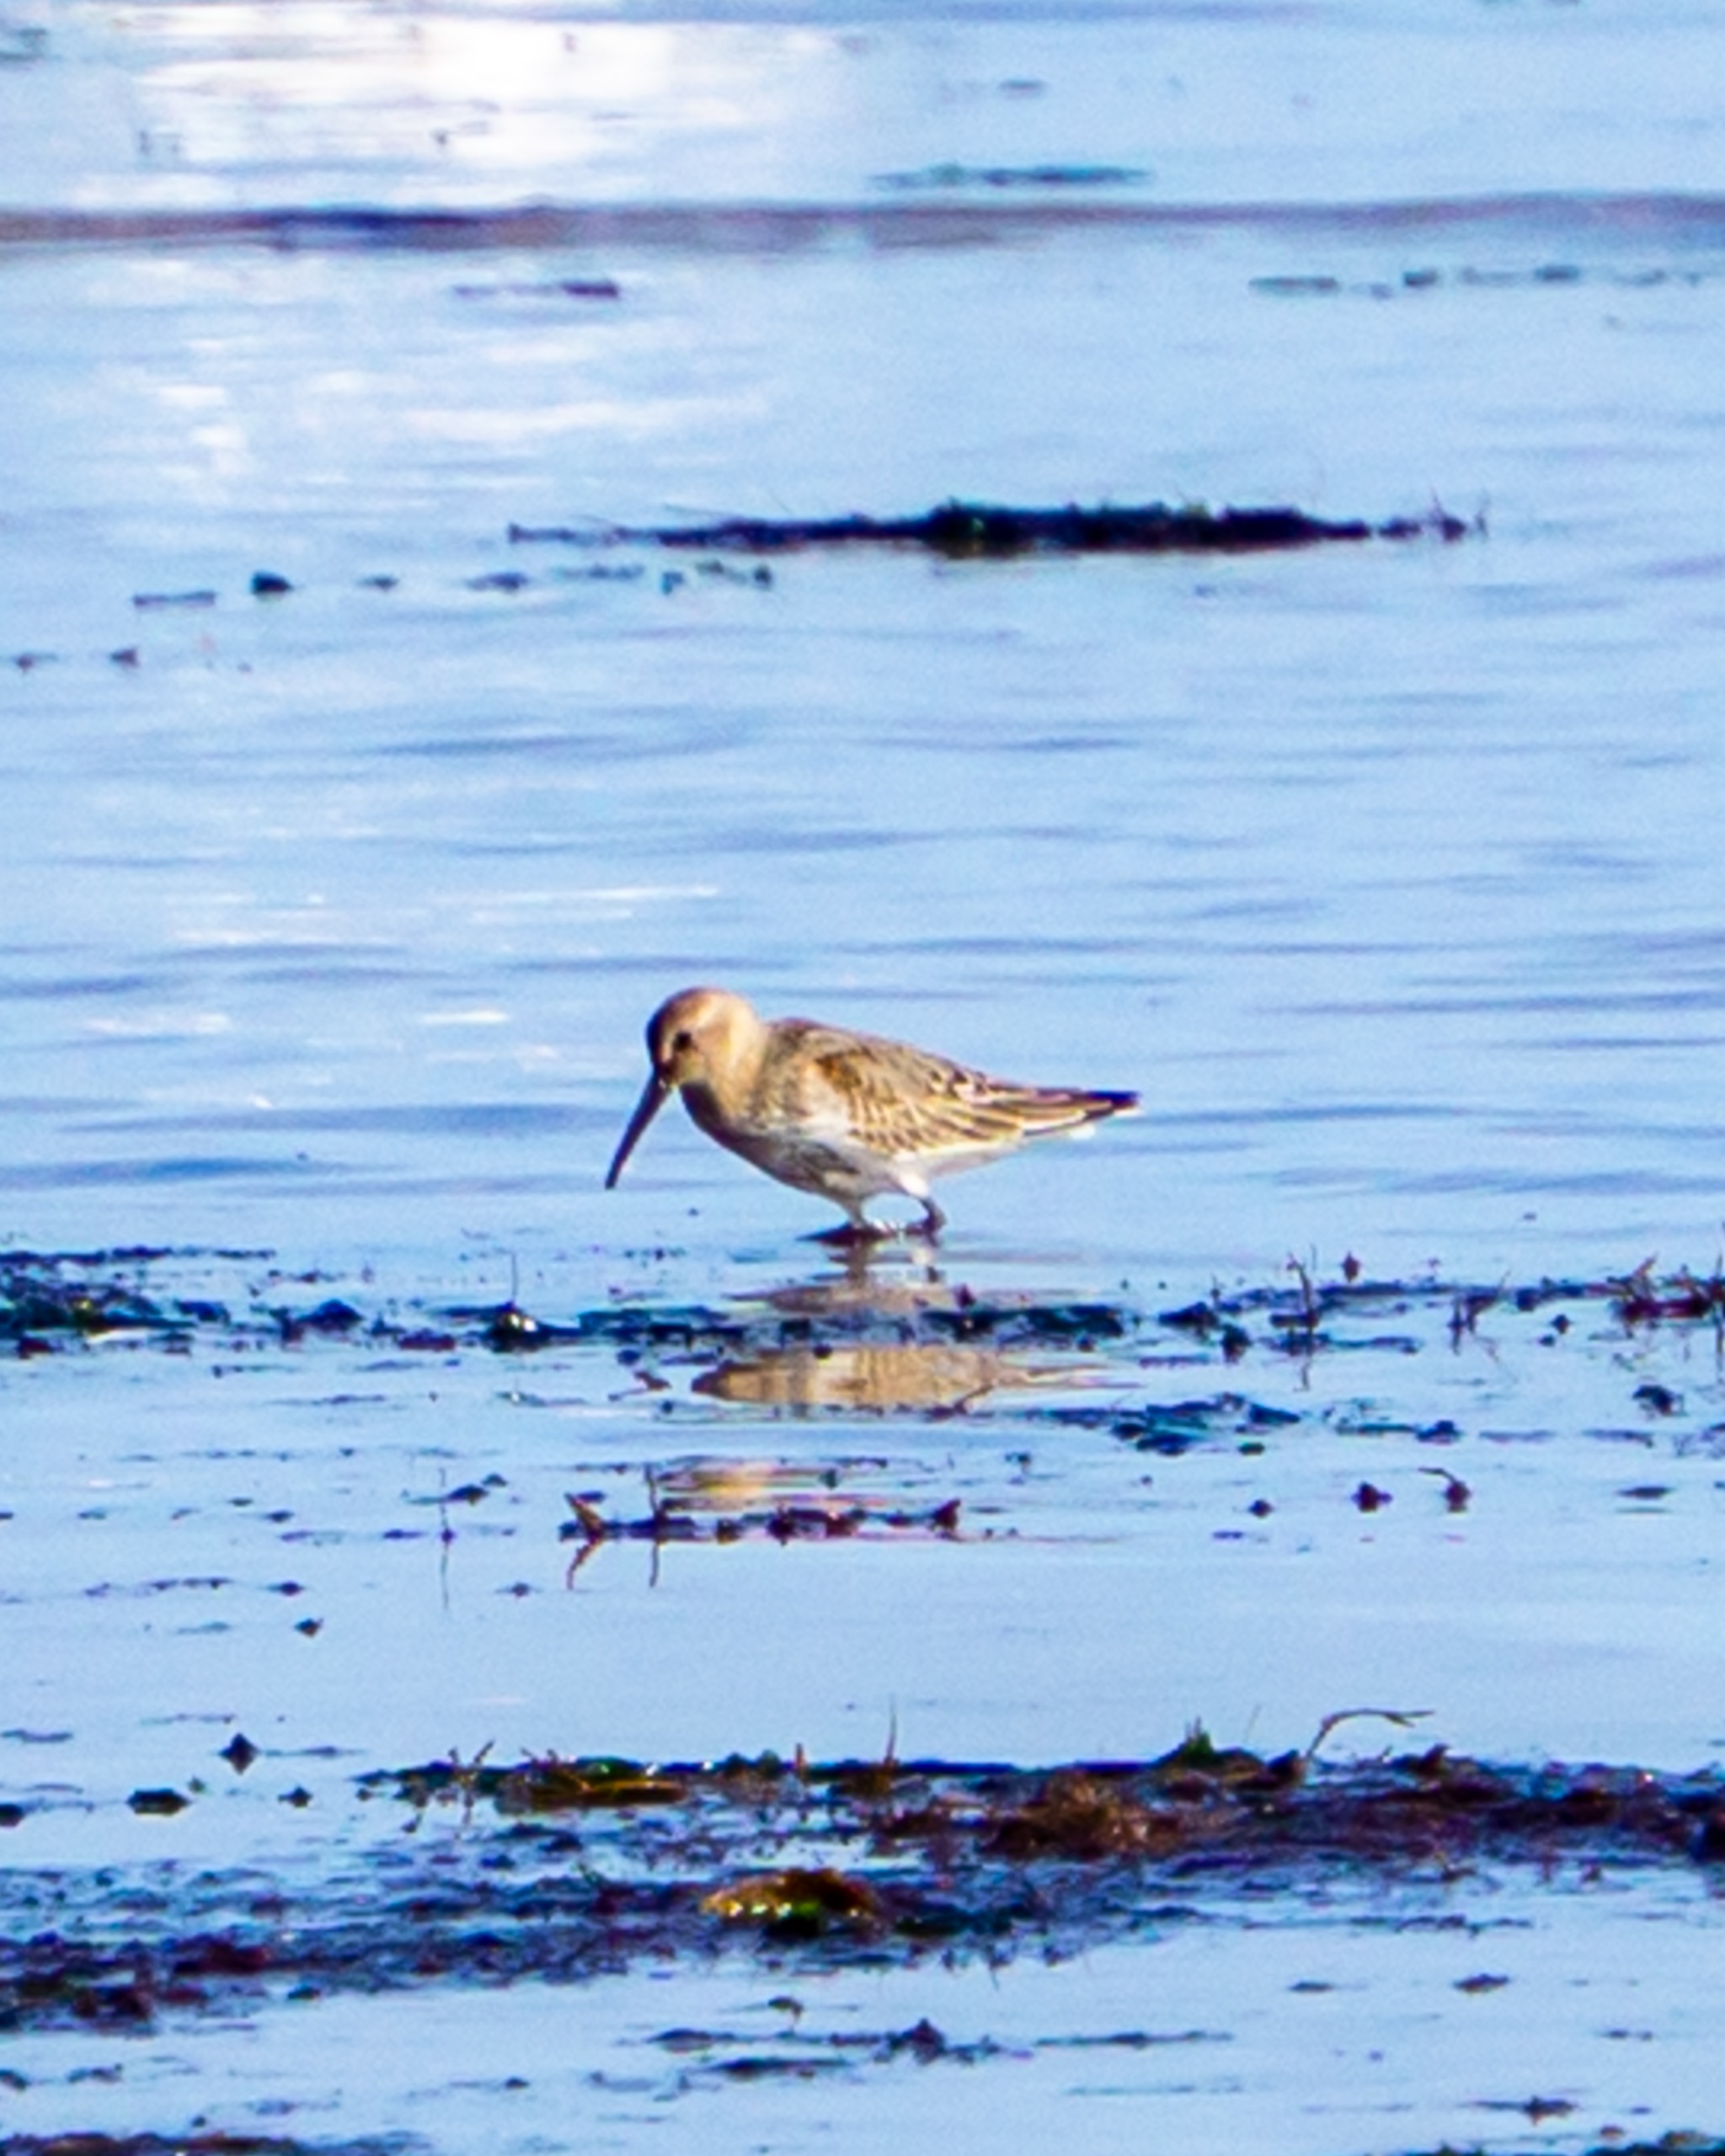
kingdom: Animalia
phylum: Chordata
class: Aves
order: Charadriiformes
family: Scolopacidae
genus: Calidris
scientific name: Calidris alpina
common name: Almindelig ryle
